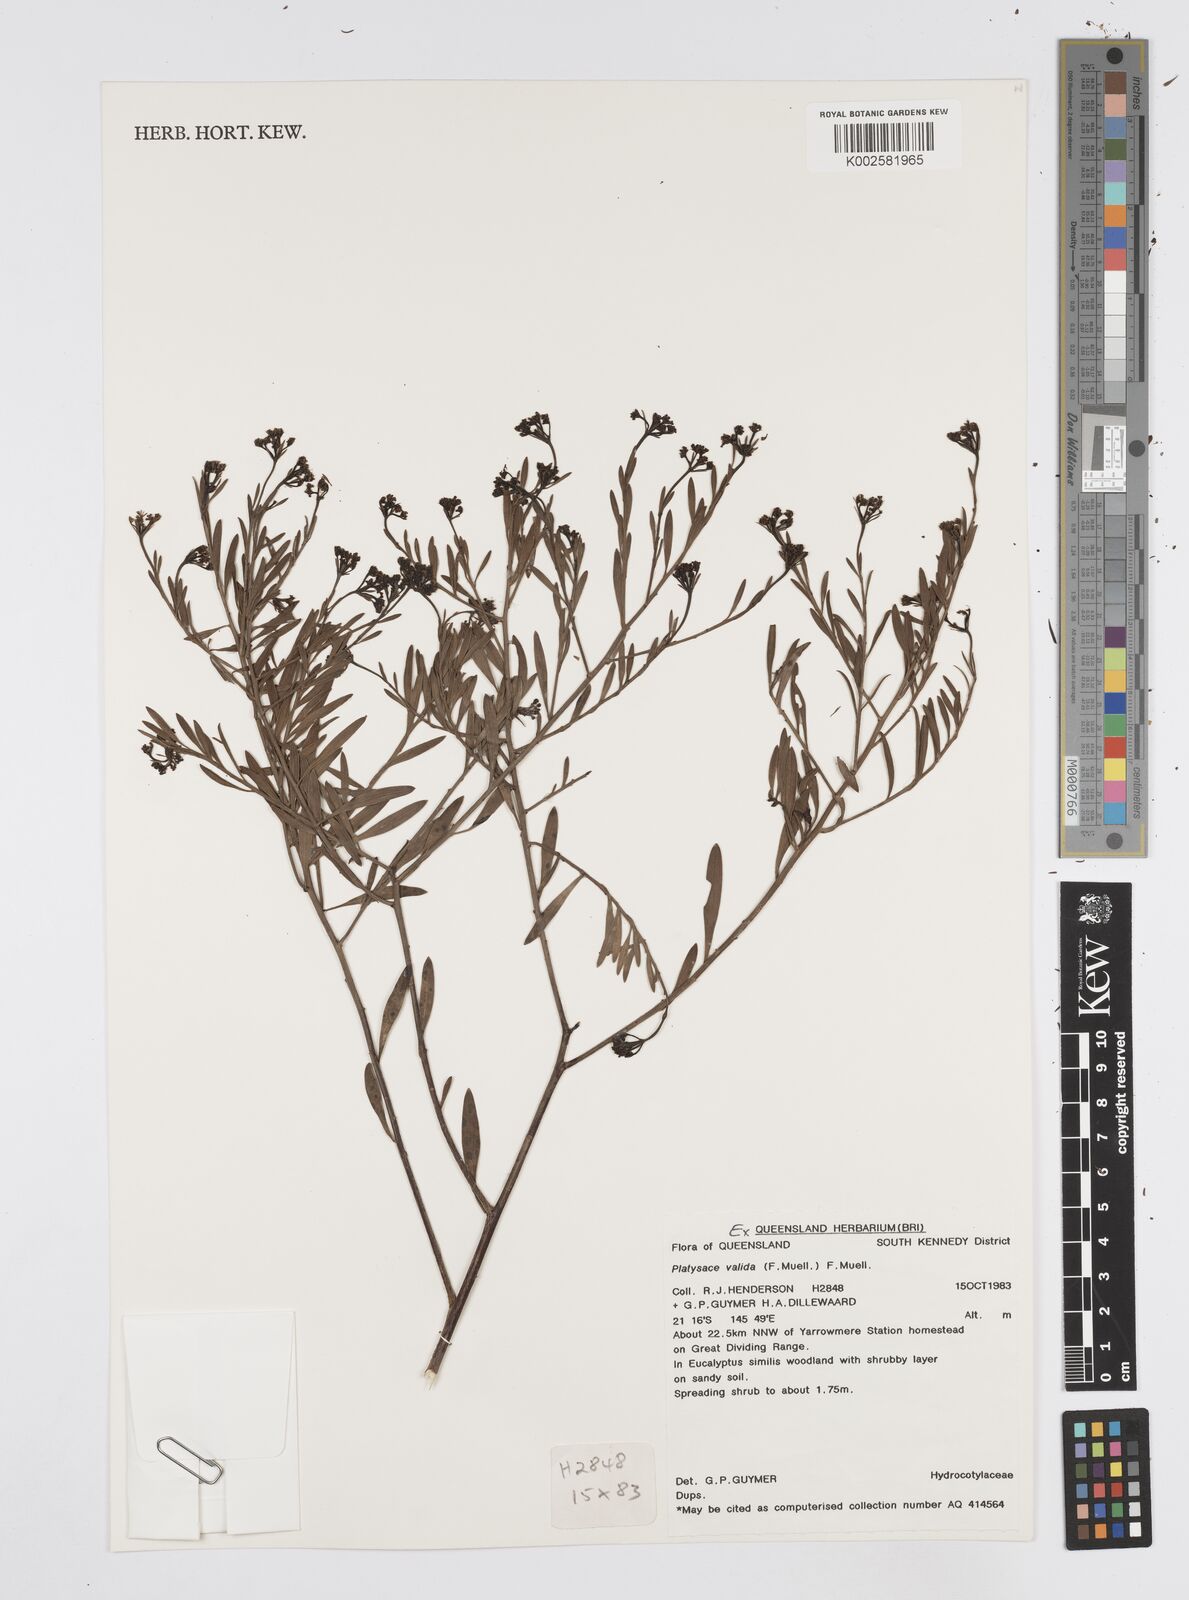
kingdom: Plantae
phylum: Tracheophyta
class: Magnoliopsida
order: Apiales
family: Apiaceae
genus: Platysace
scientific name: Platysace valida
